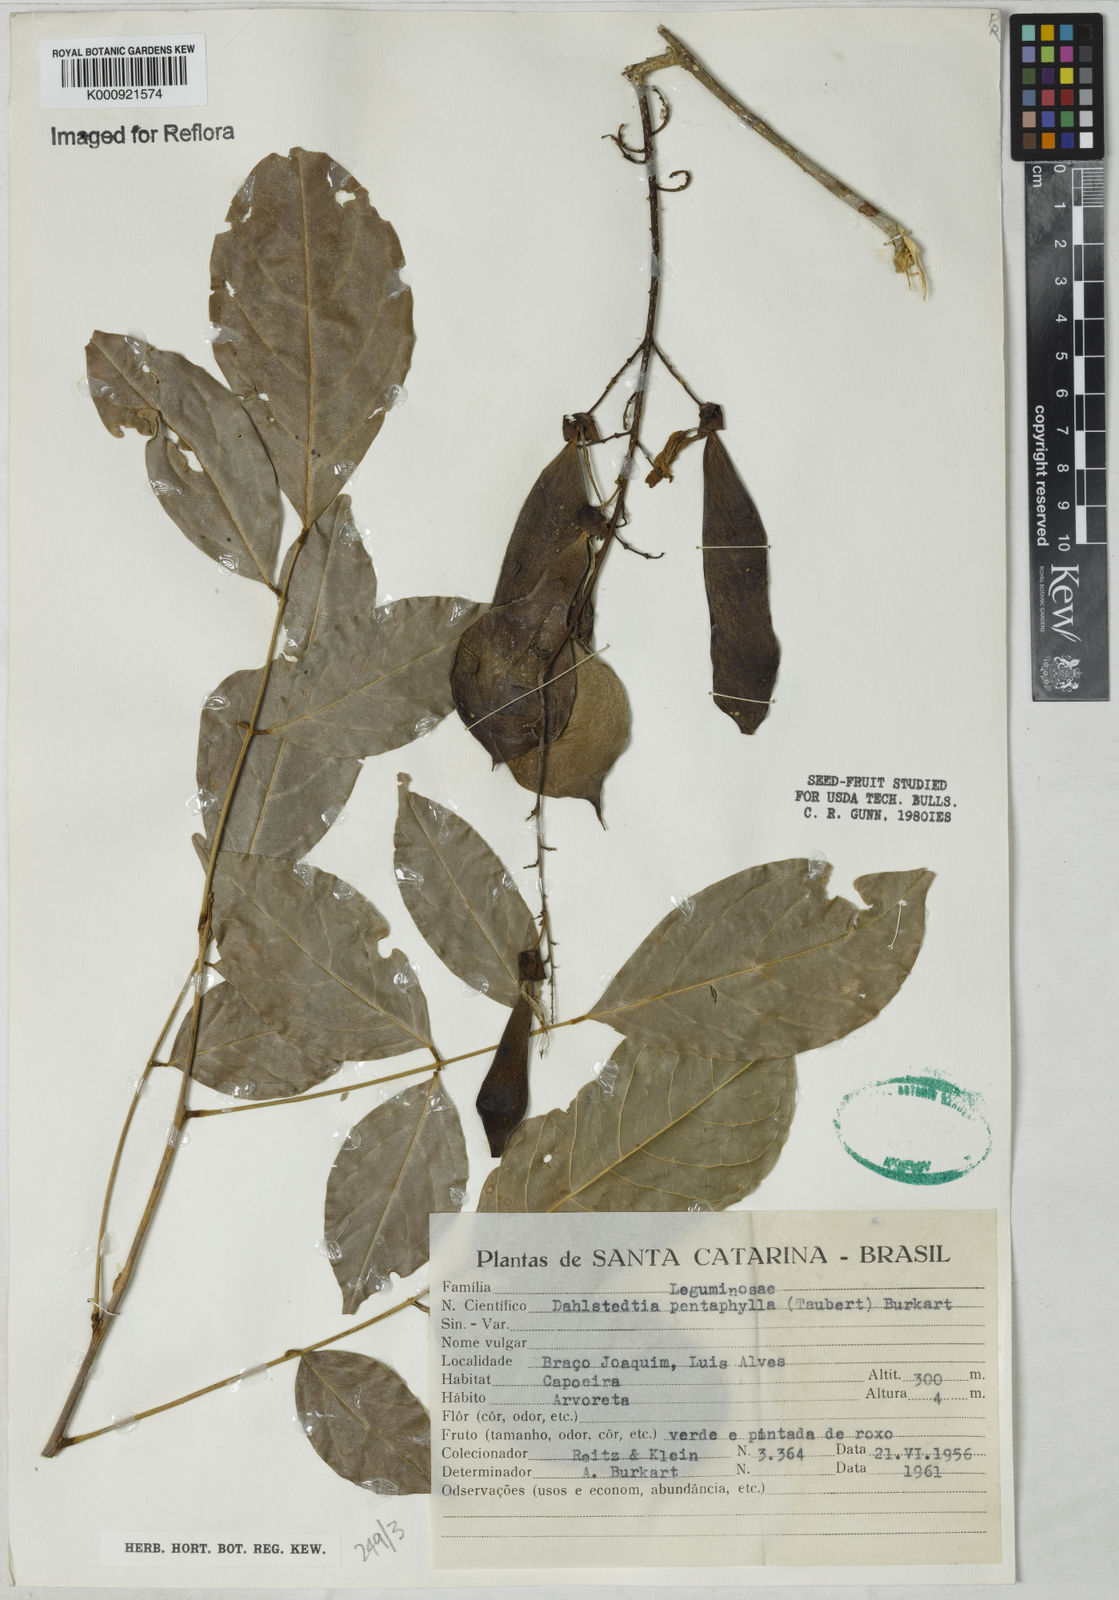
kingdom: Plantae
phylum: Tracheophyta
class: Magnoliopsida
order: Fabales
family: Fabaceae
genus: Dahlstedtia
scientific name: Dahlstedtia pentaphylla
